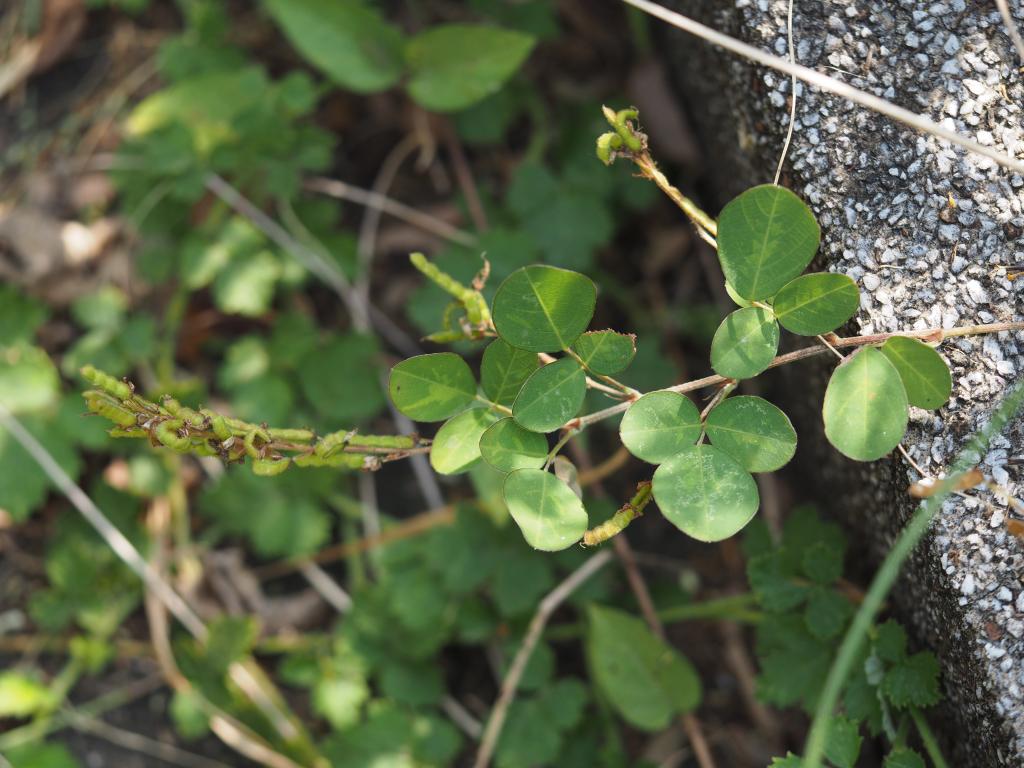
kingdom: Plantae
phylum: Tracheophyta
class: Magnoliopsida
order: Fabales
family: Fabaceae
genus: Grona
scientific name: Grona heterocarpos
